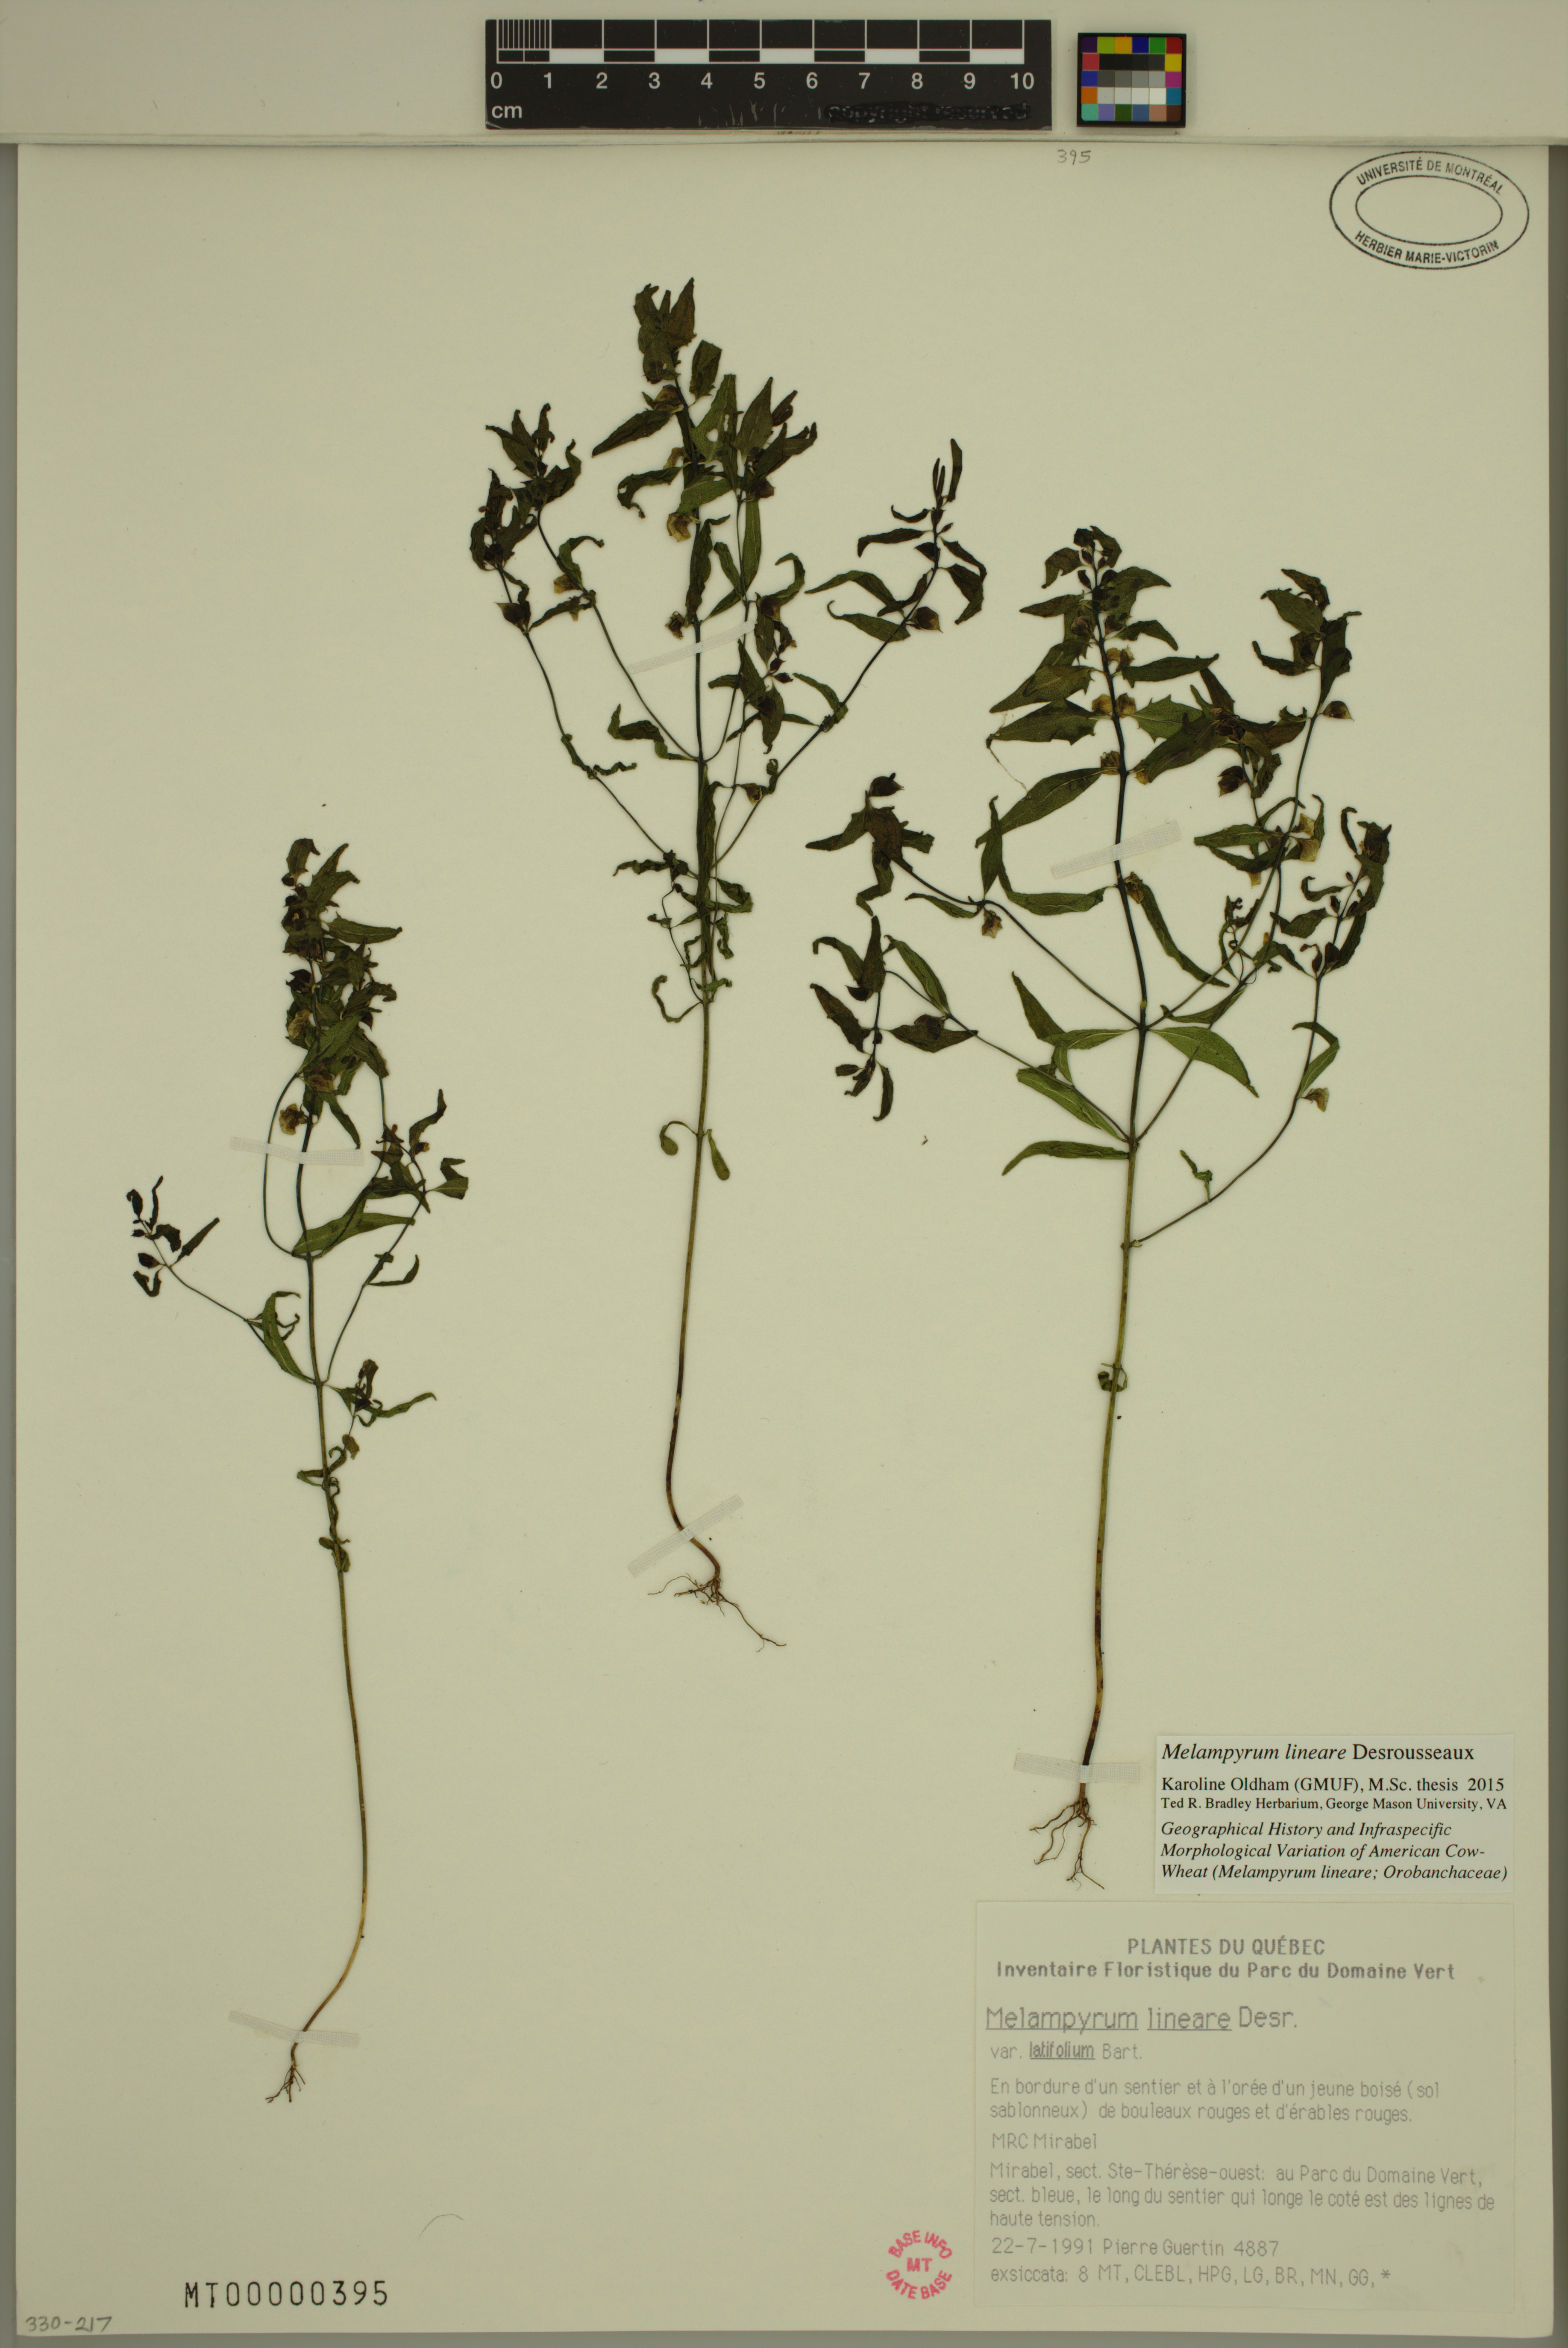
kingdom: Plantae
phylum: Tracheophyta
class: Magnoliopsida
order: Lamiales
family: Orobanchaceae
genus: Melampyrum
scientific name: Melampyrum lineare
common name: American cow-wheat
